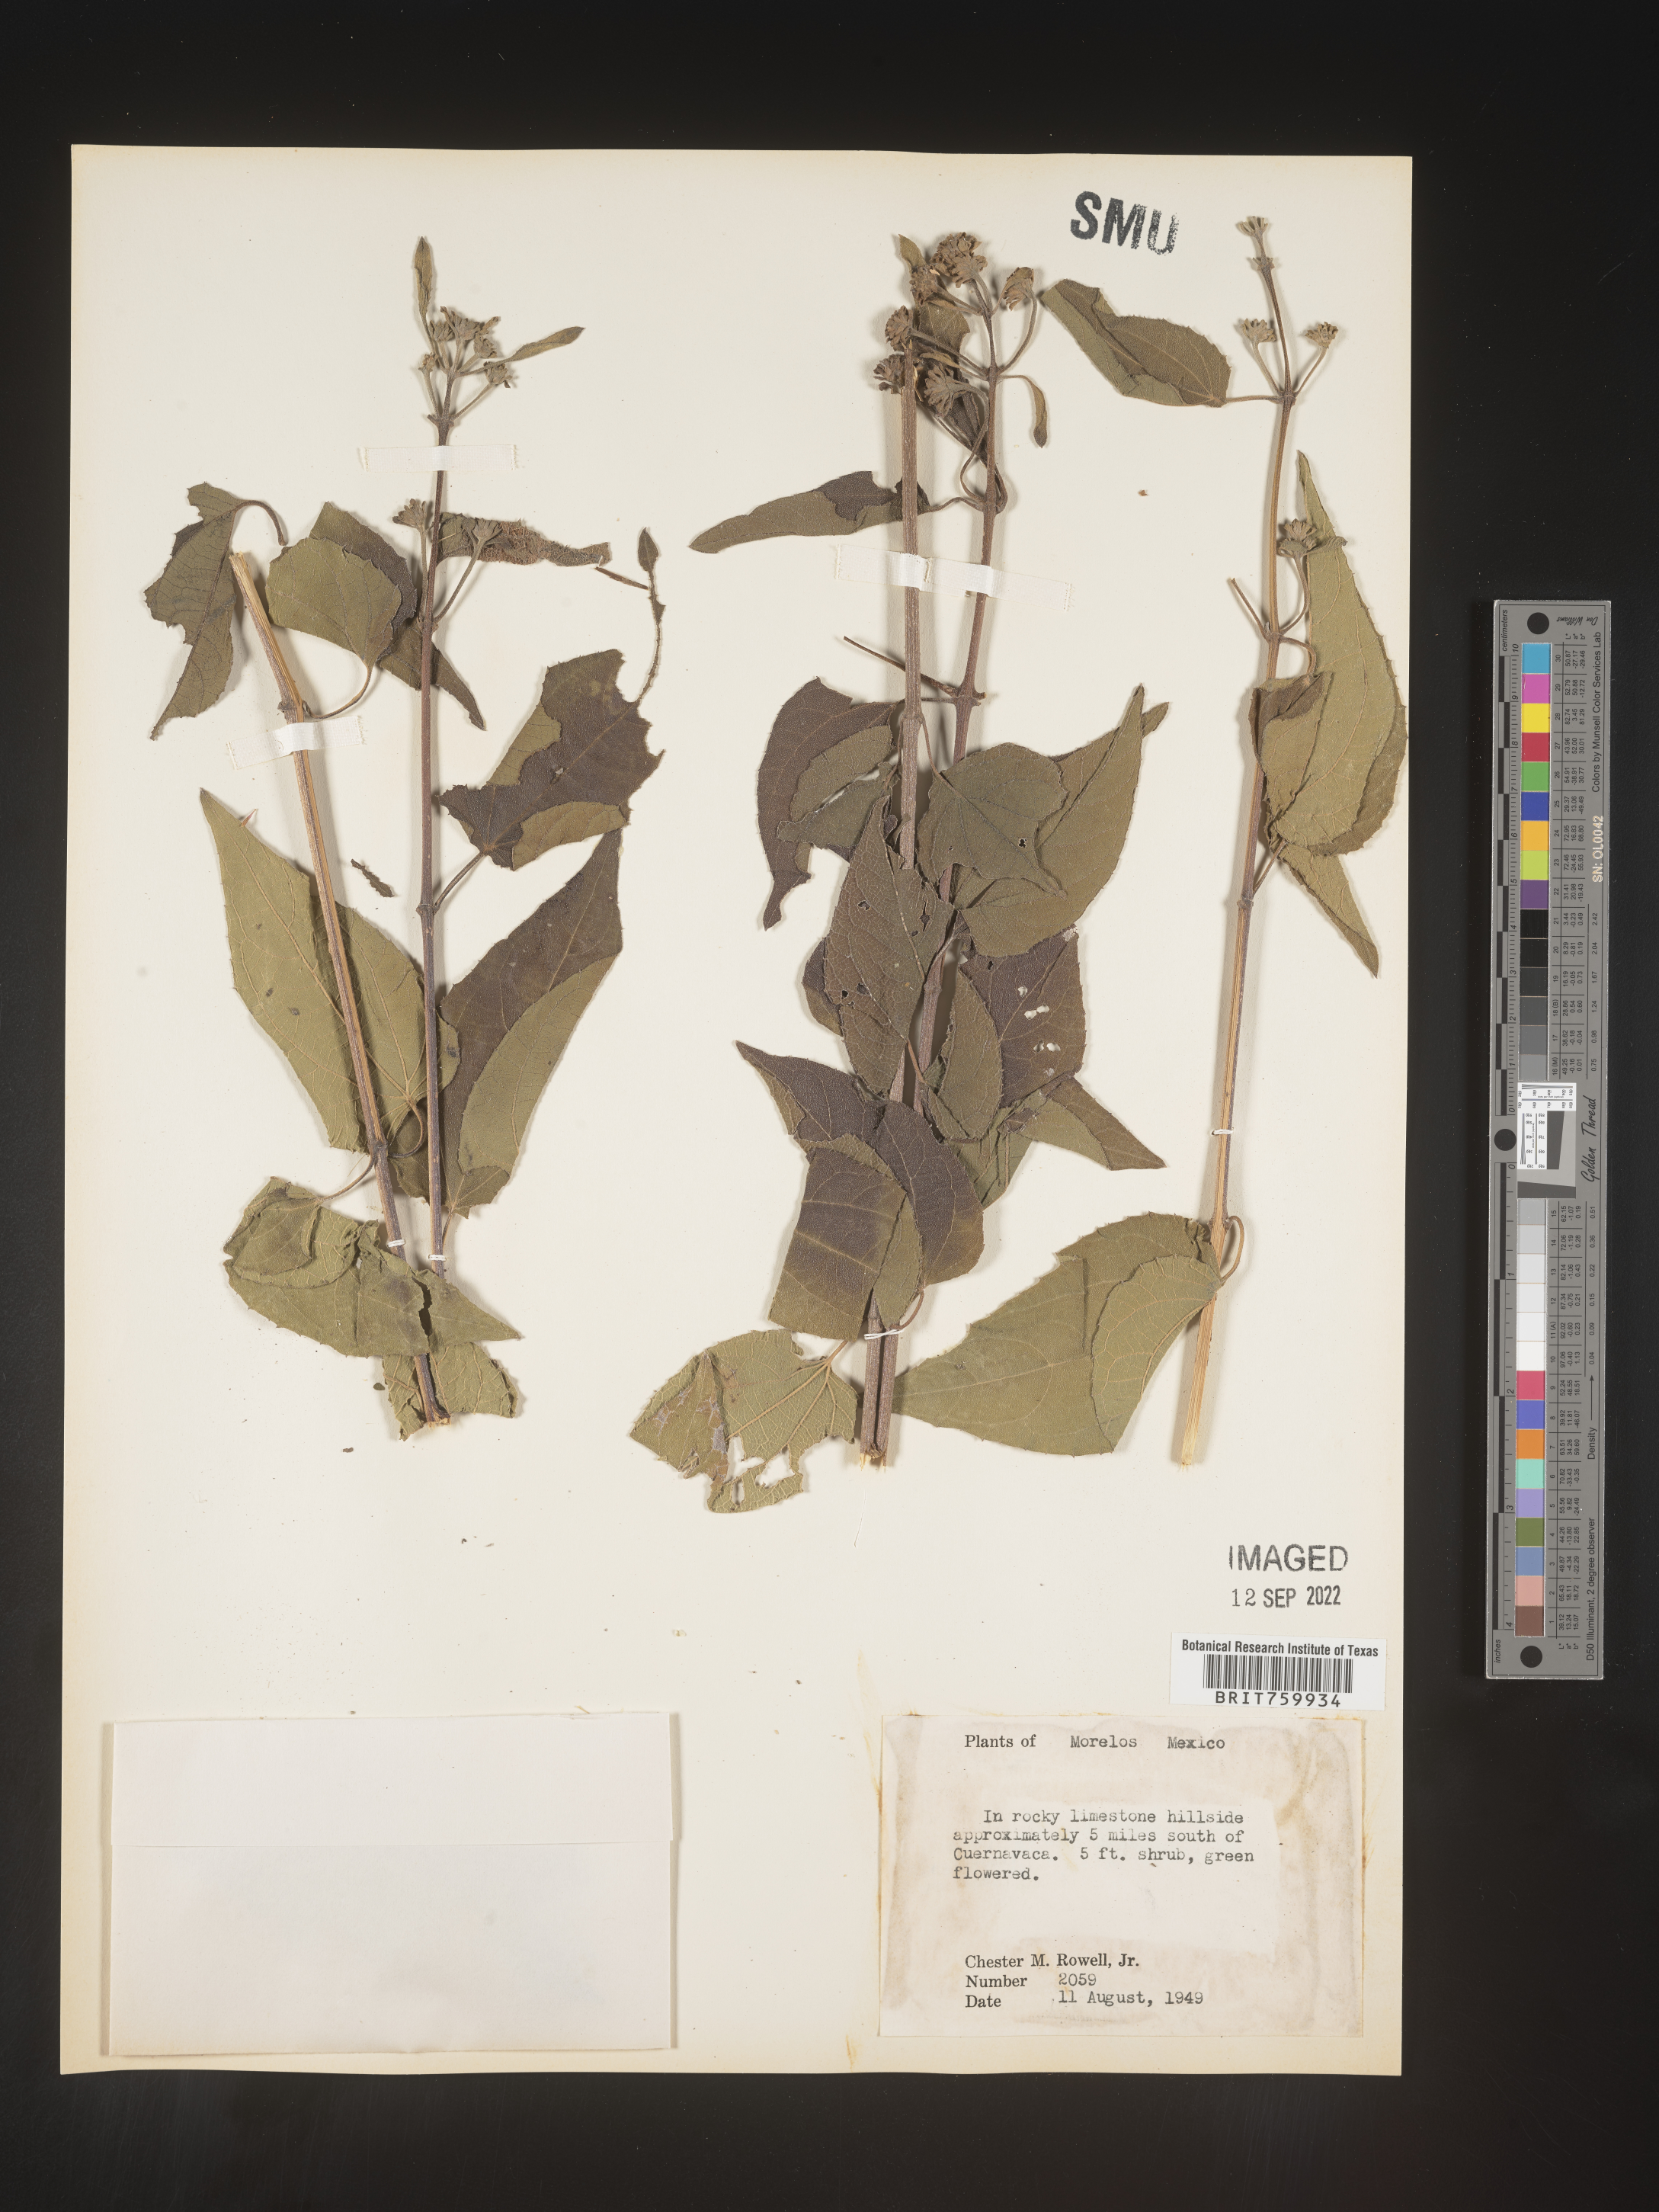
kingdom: Plantae
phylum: Tracheophyta
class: Magnoliopsida
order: Asterales
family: Asteraceae
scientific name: Asteraceae
